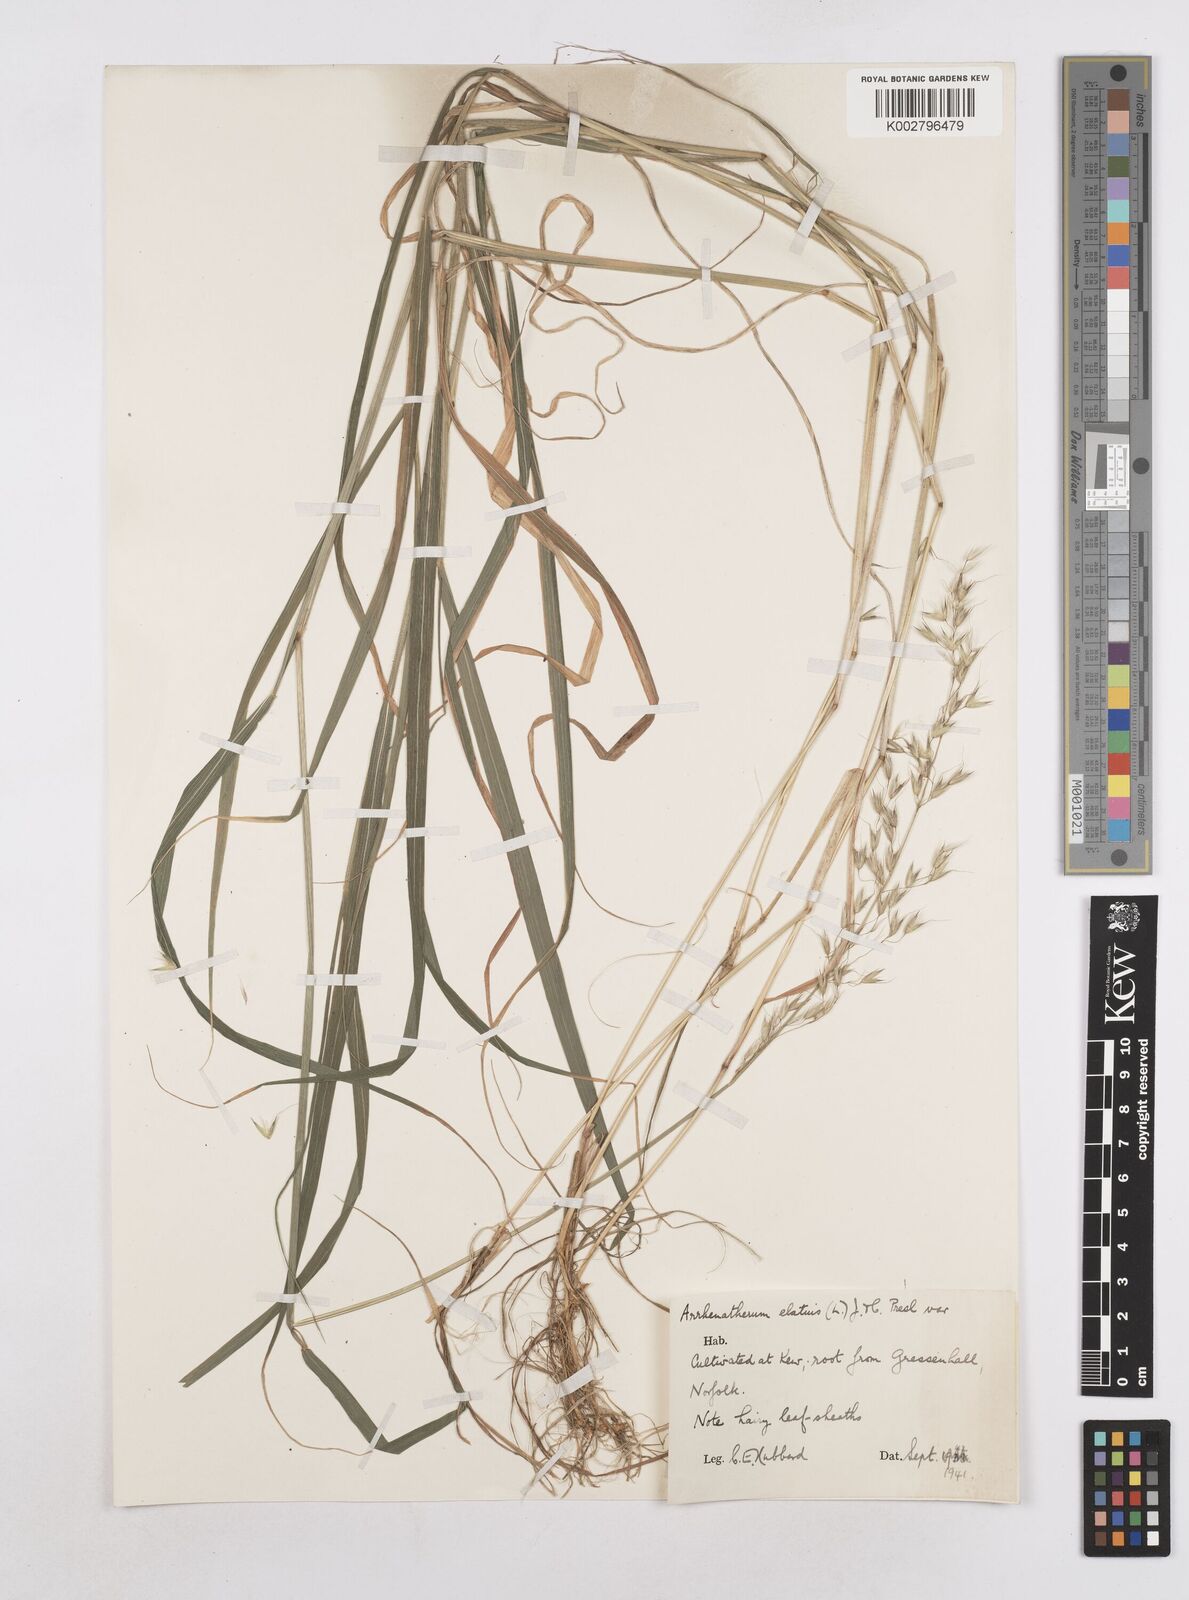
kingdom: Plantae
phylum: Tracheophyta
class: Liliopsida
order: Poales
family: Poaceae
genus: Arrhenatherum
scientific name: Arrhenatherum elatius
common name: Tall oatgrass
